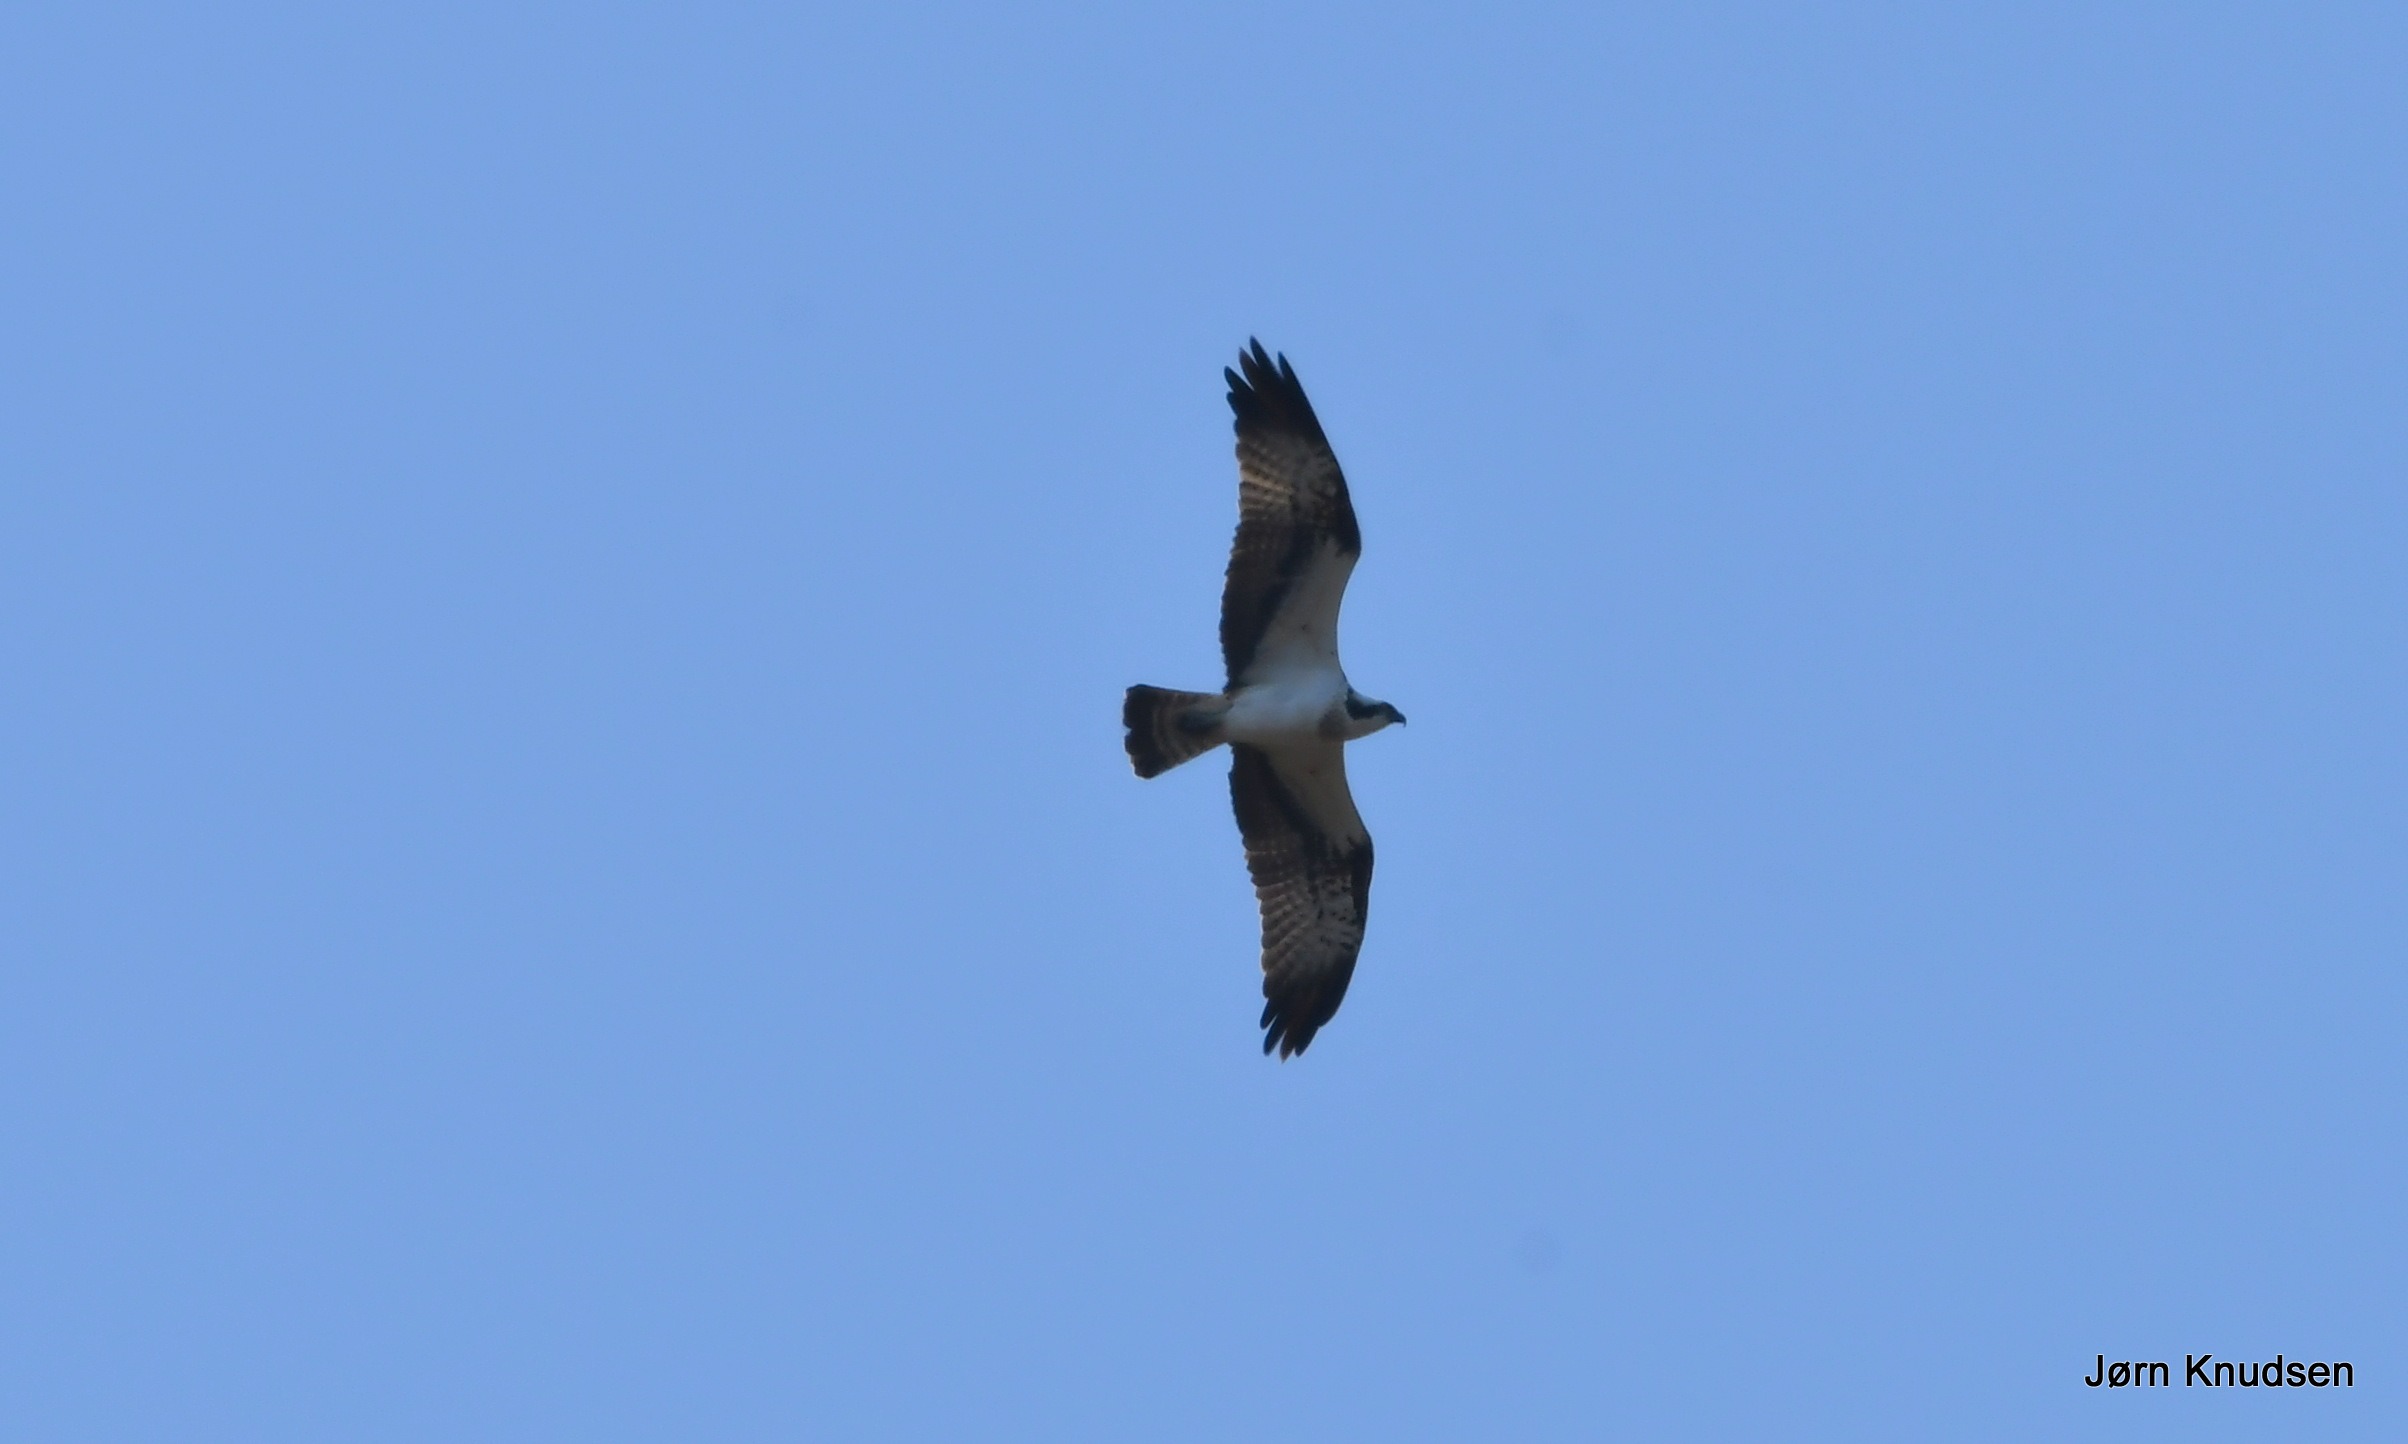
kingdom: Animalia
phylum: Chordata
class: Aves
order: Accipitriformes
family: Pandionidae
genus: Pandion
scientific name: Pandion haliaetus
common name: Fiskeørn
